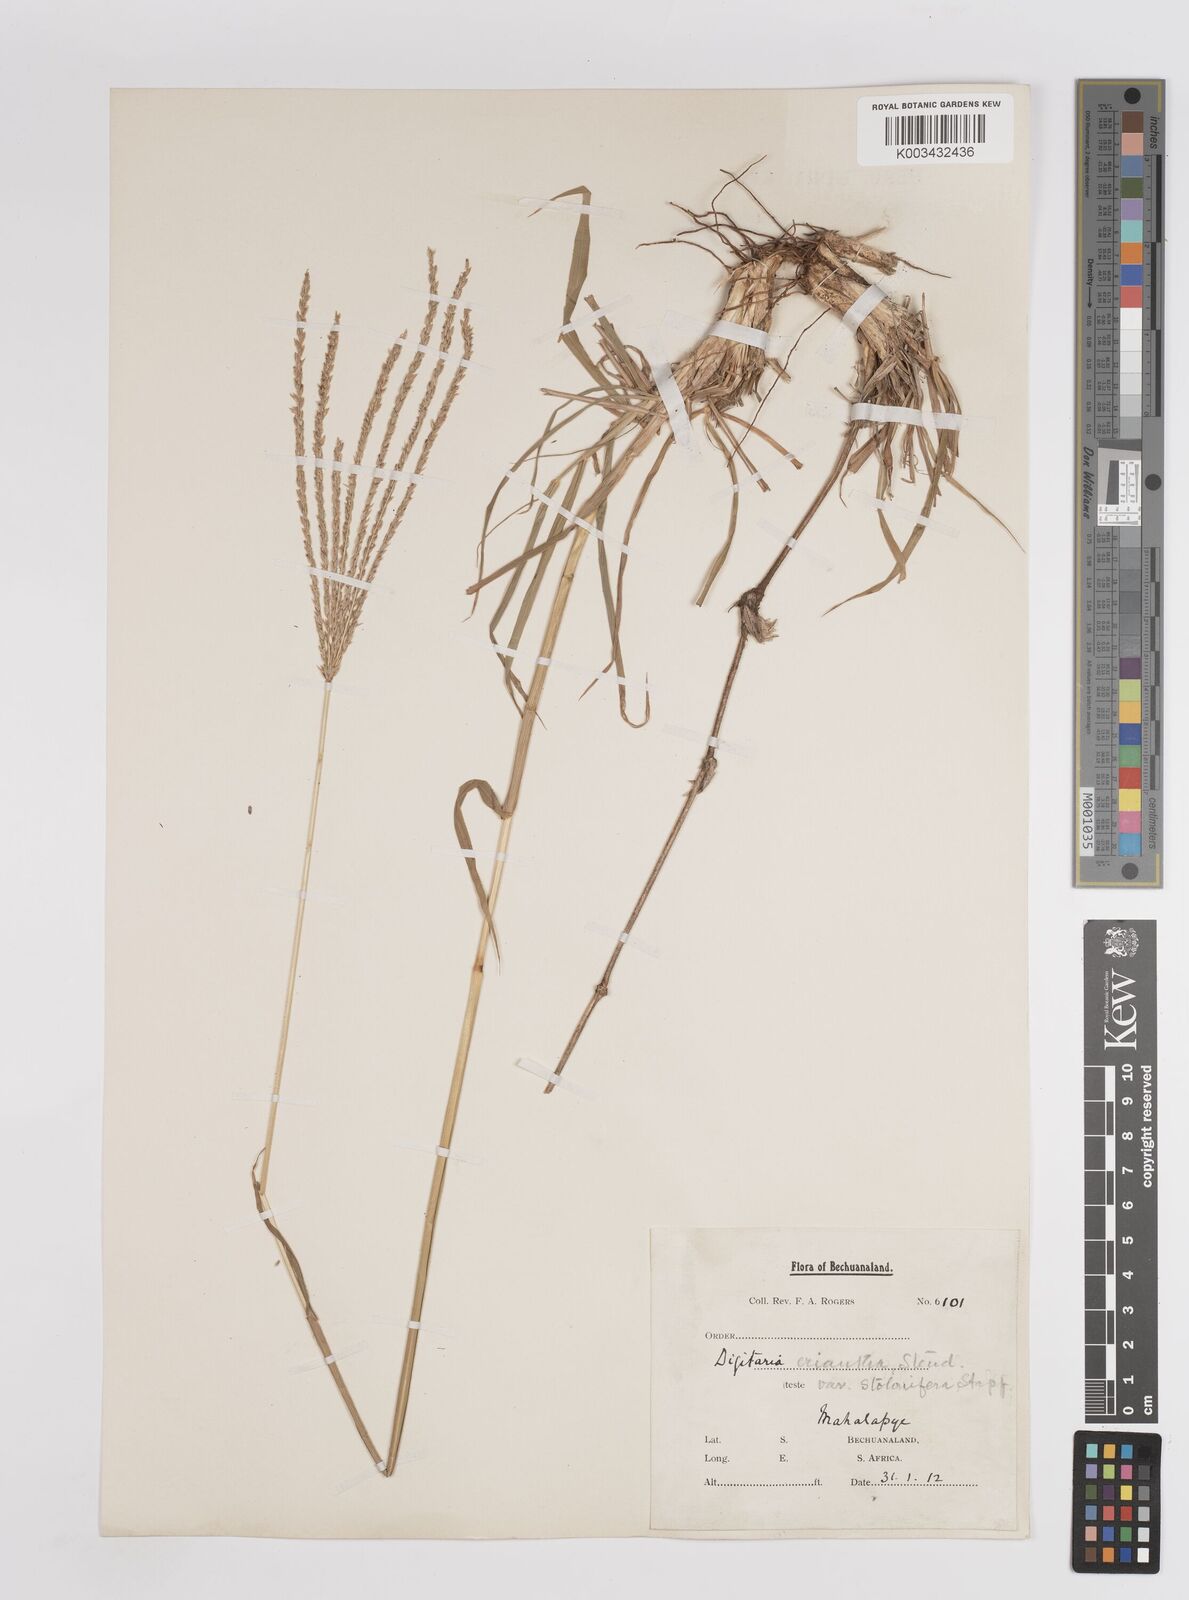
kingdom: Plantae
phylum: Tracheophyta
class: Liliopsida
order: Poales
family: Poaceae
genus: Digitaria
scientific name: Digitaria eriantha
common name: Digitgrass
